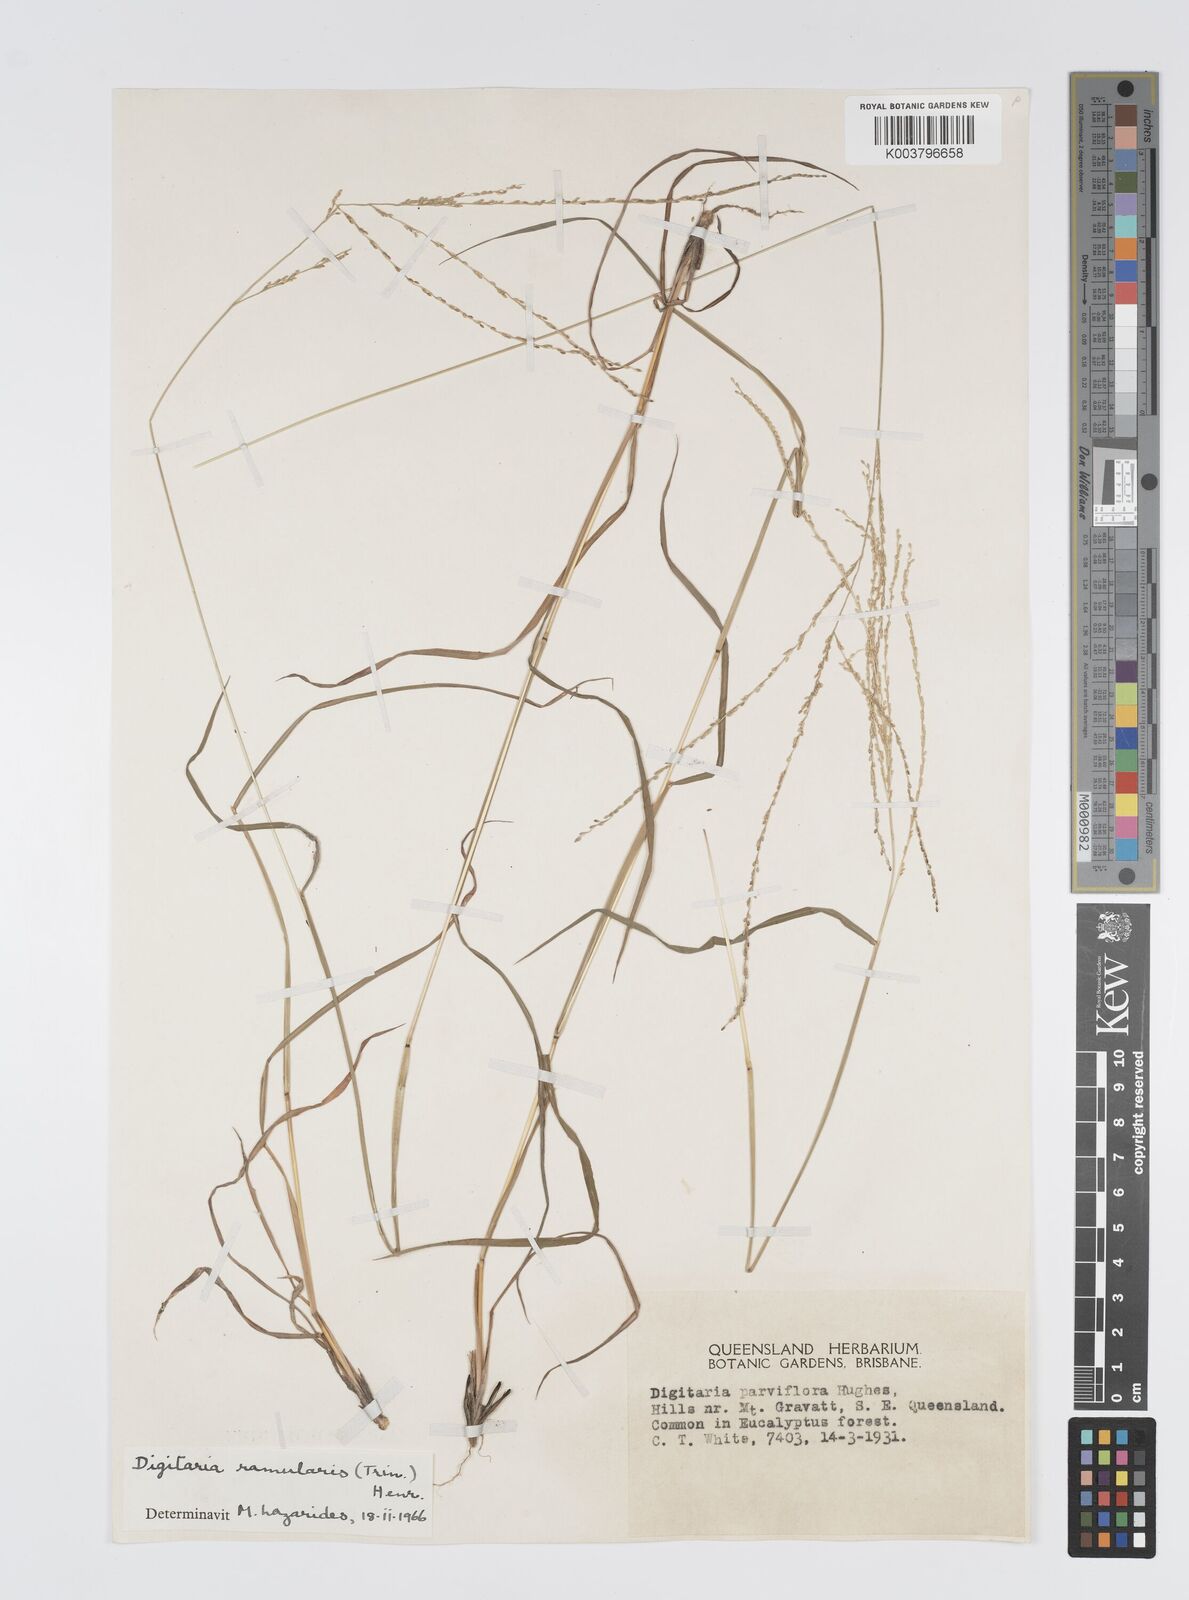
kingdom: Plantae
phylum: Tracheophyta
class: Liliopsida
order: Poales
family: Poaceae
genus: Digitaria
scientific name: Digitaria ramularis
